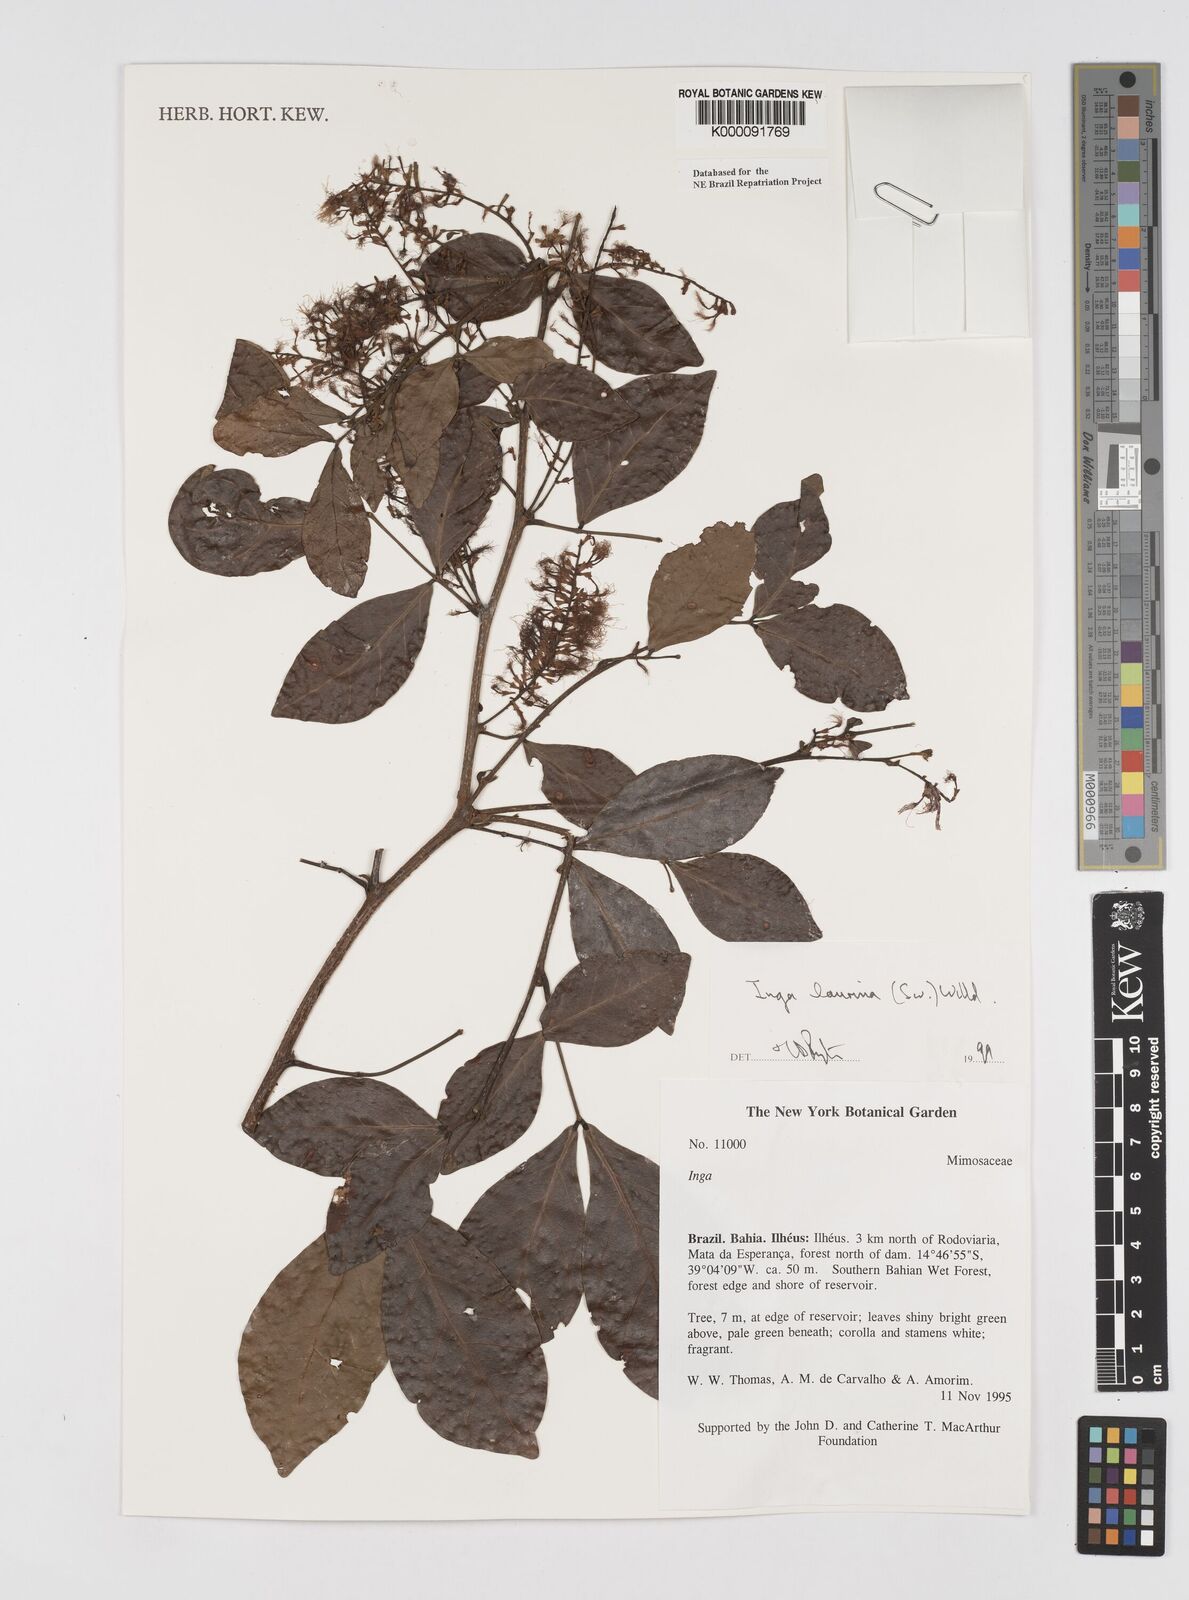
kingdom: Plantae
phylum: Tracheophyta
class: Magnoliopsida
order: Fabales
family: Fabaceae
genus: Inga
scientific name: Inga laurina
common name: Red wood
